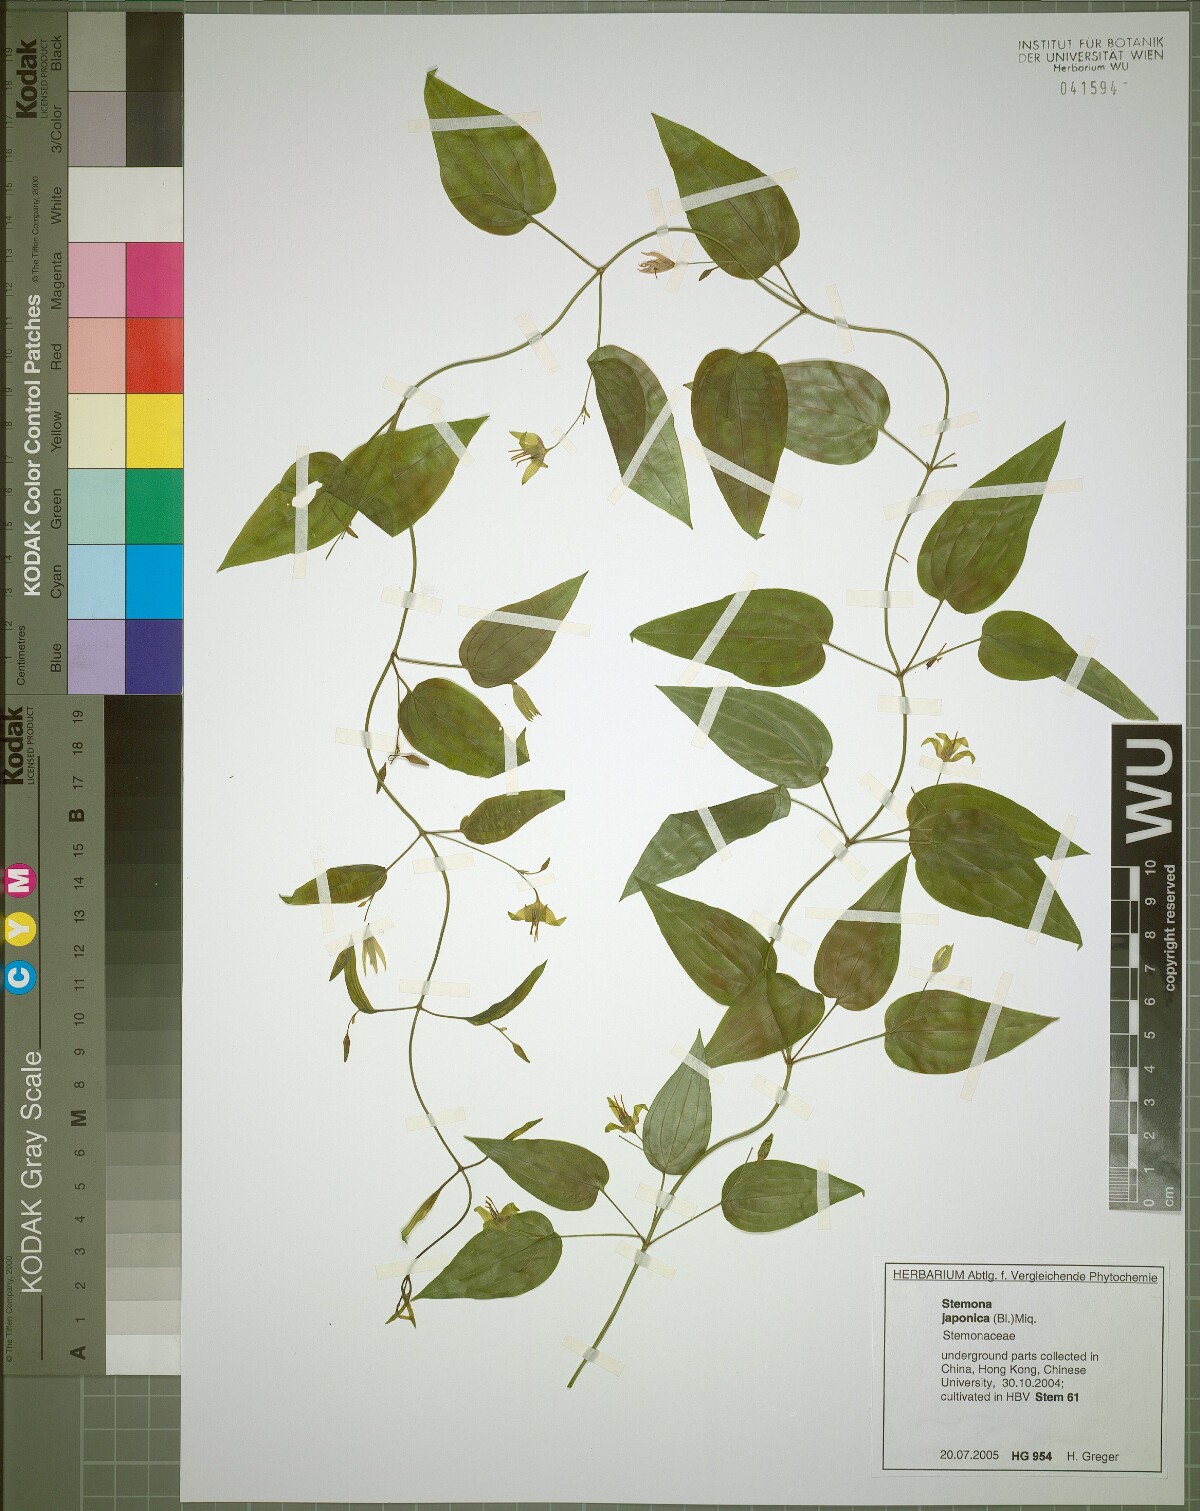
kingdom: Plantae
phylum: Tracheophyta
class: Liliopsida
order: Pandanales
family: Stemonaceae
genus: Stemona
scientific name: Stemona japonica
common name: Stemona
